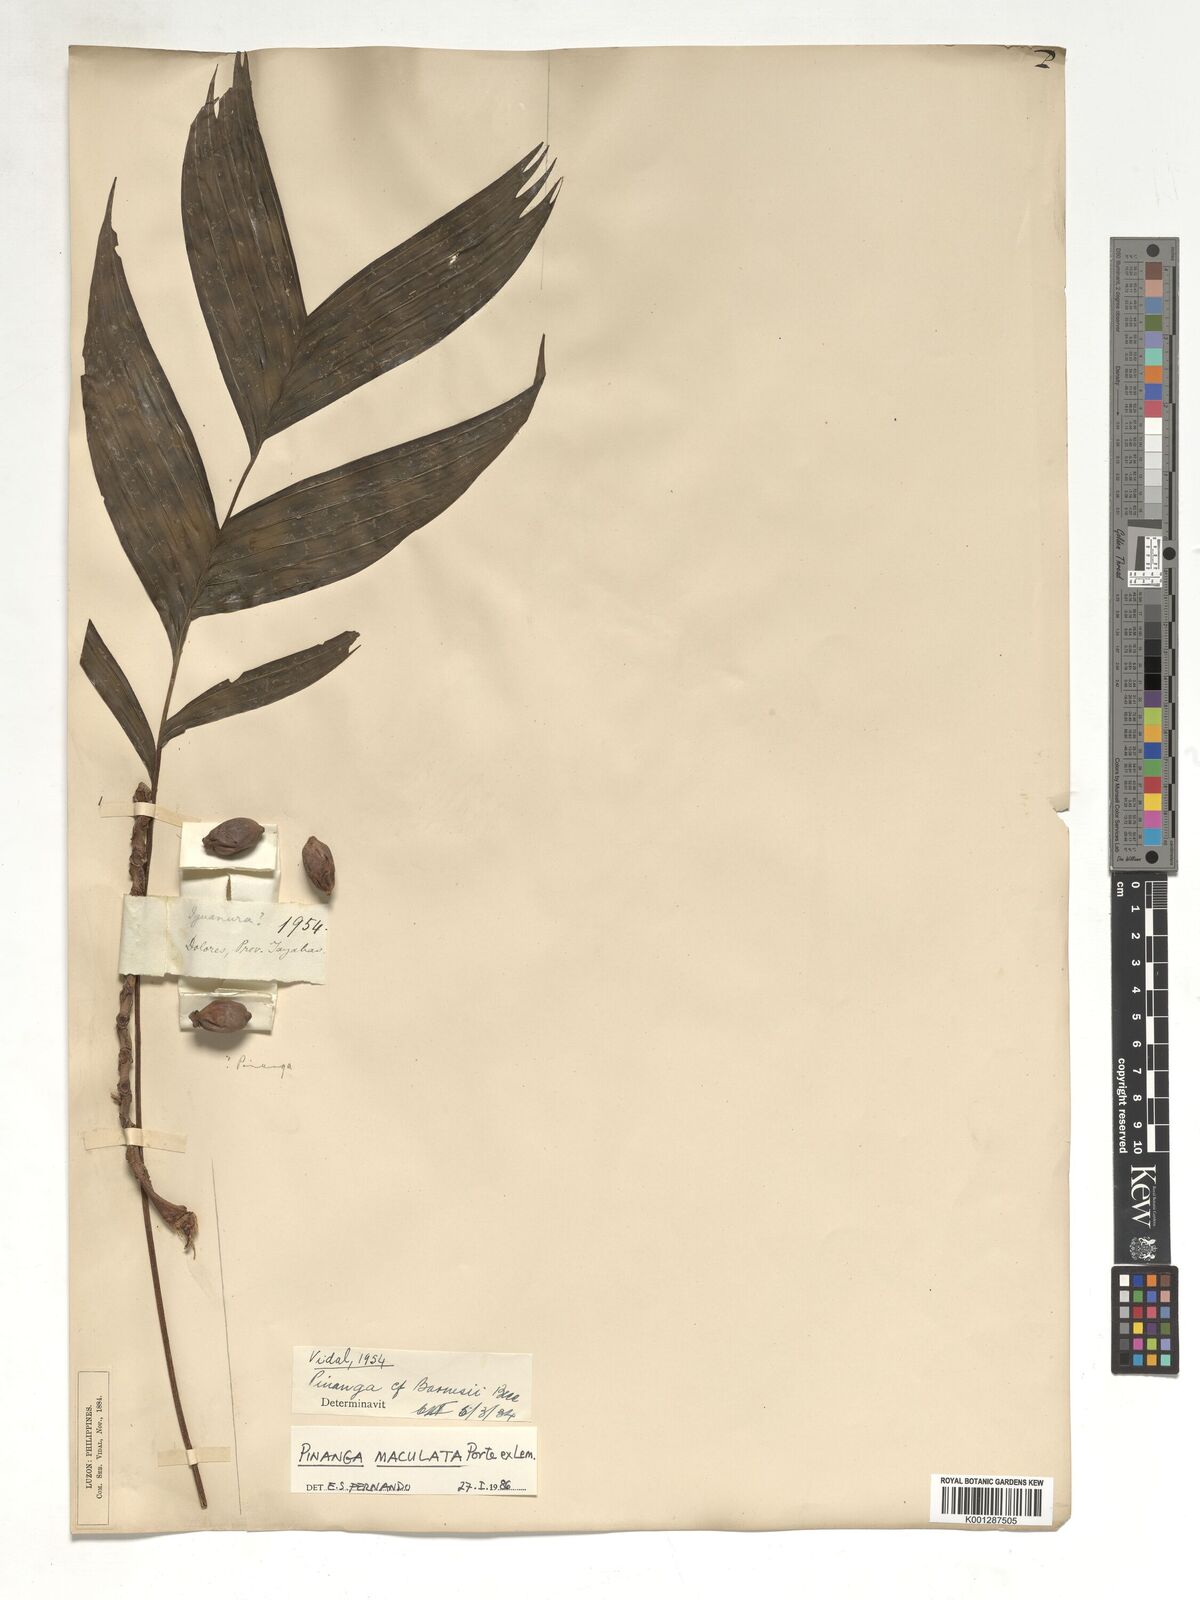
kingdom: Plantae
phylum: Tracheophyta
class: Liliopsida
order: Arecales
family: Arecaceae
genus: Pinanga
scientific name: Pinanga maculata
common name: Tiger palm
